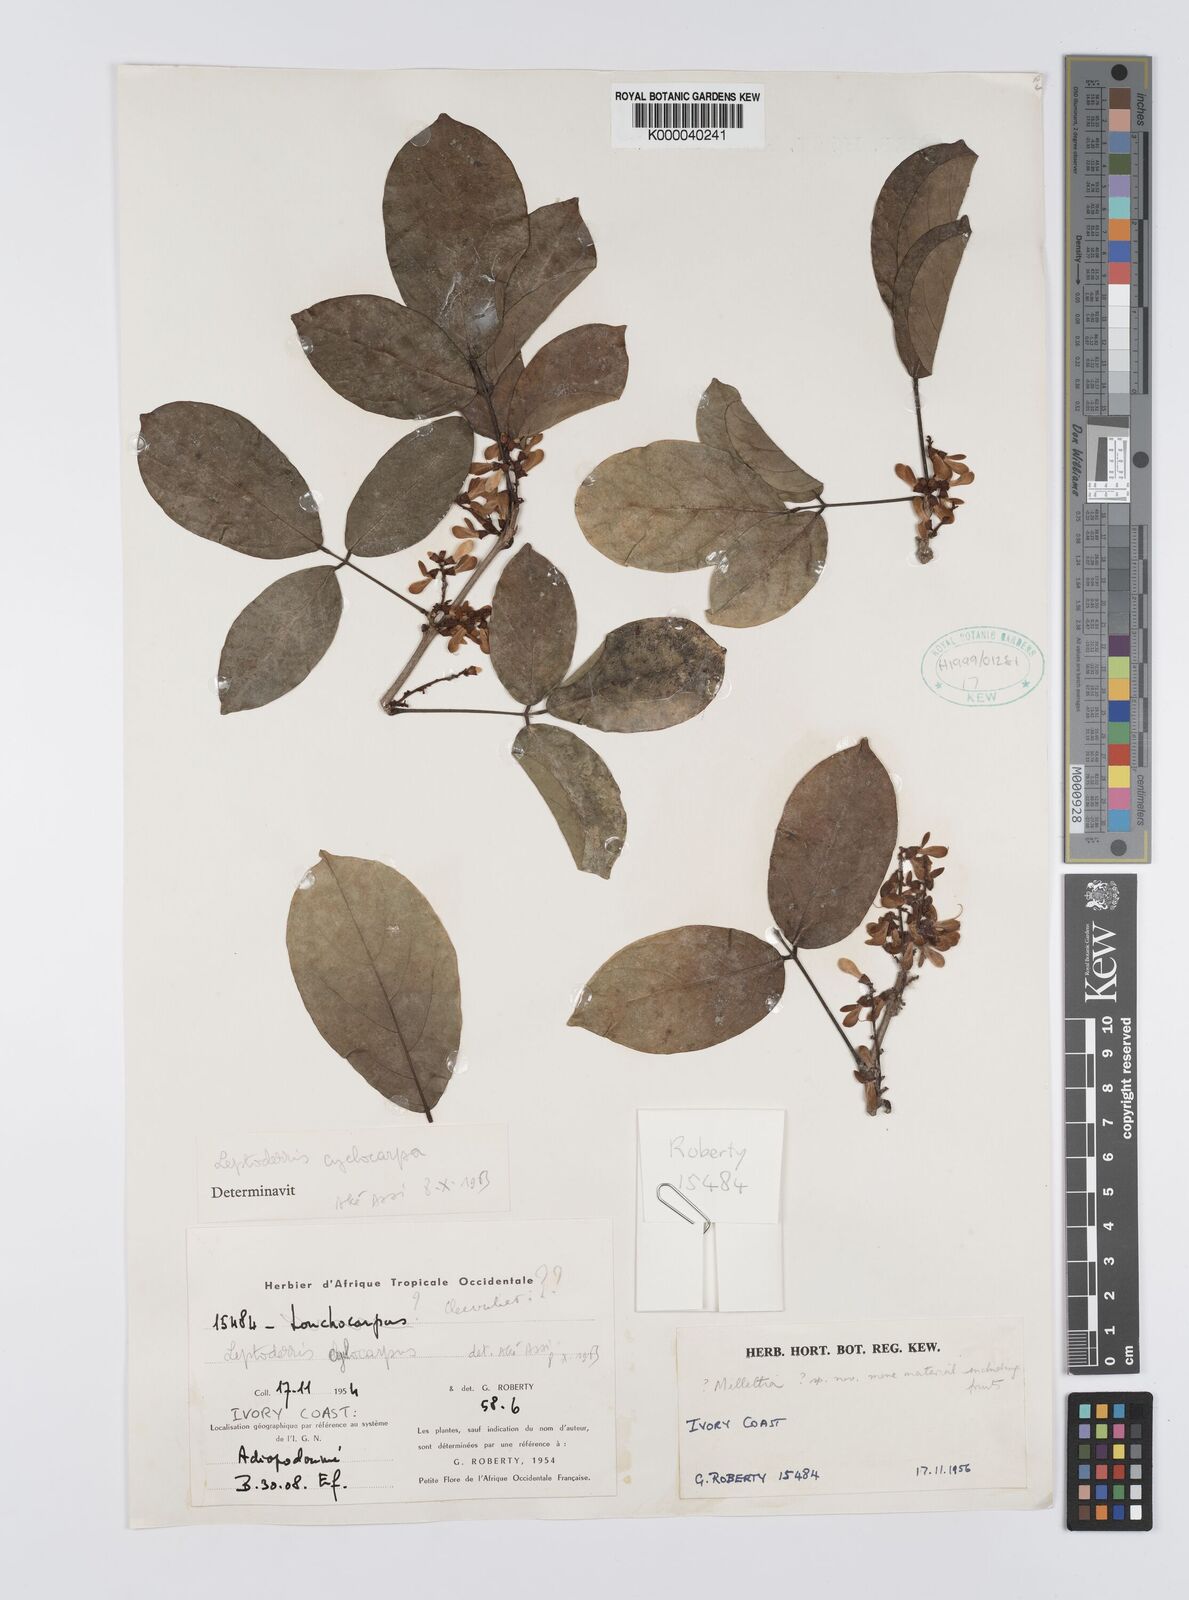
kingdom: Plantae
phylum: Tracheophyta
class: Magnoliopsida
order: Fabales
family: Fabaceae
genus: Leptoderris
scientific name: Leptoderris cyclocarpa
